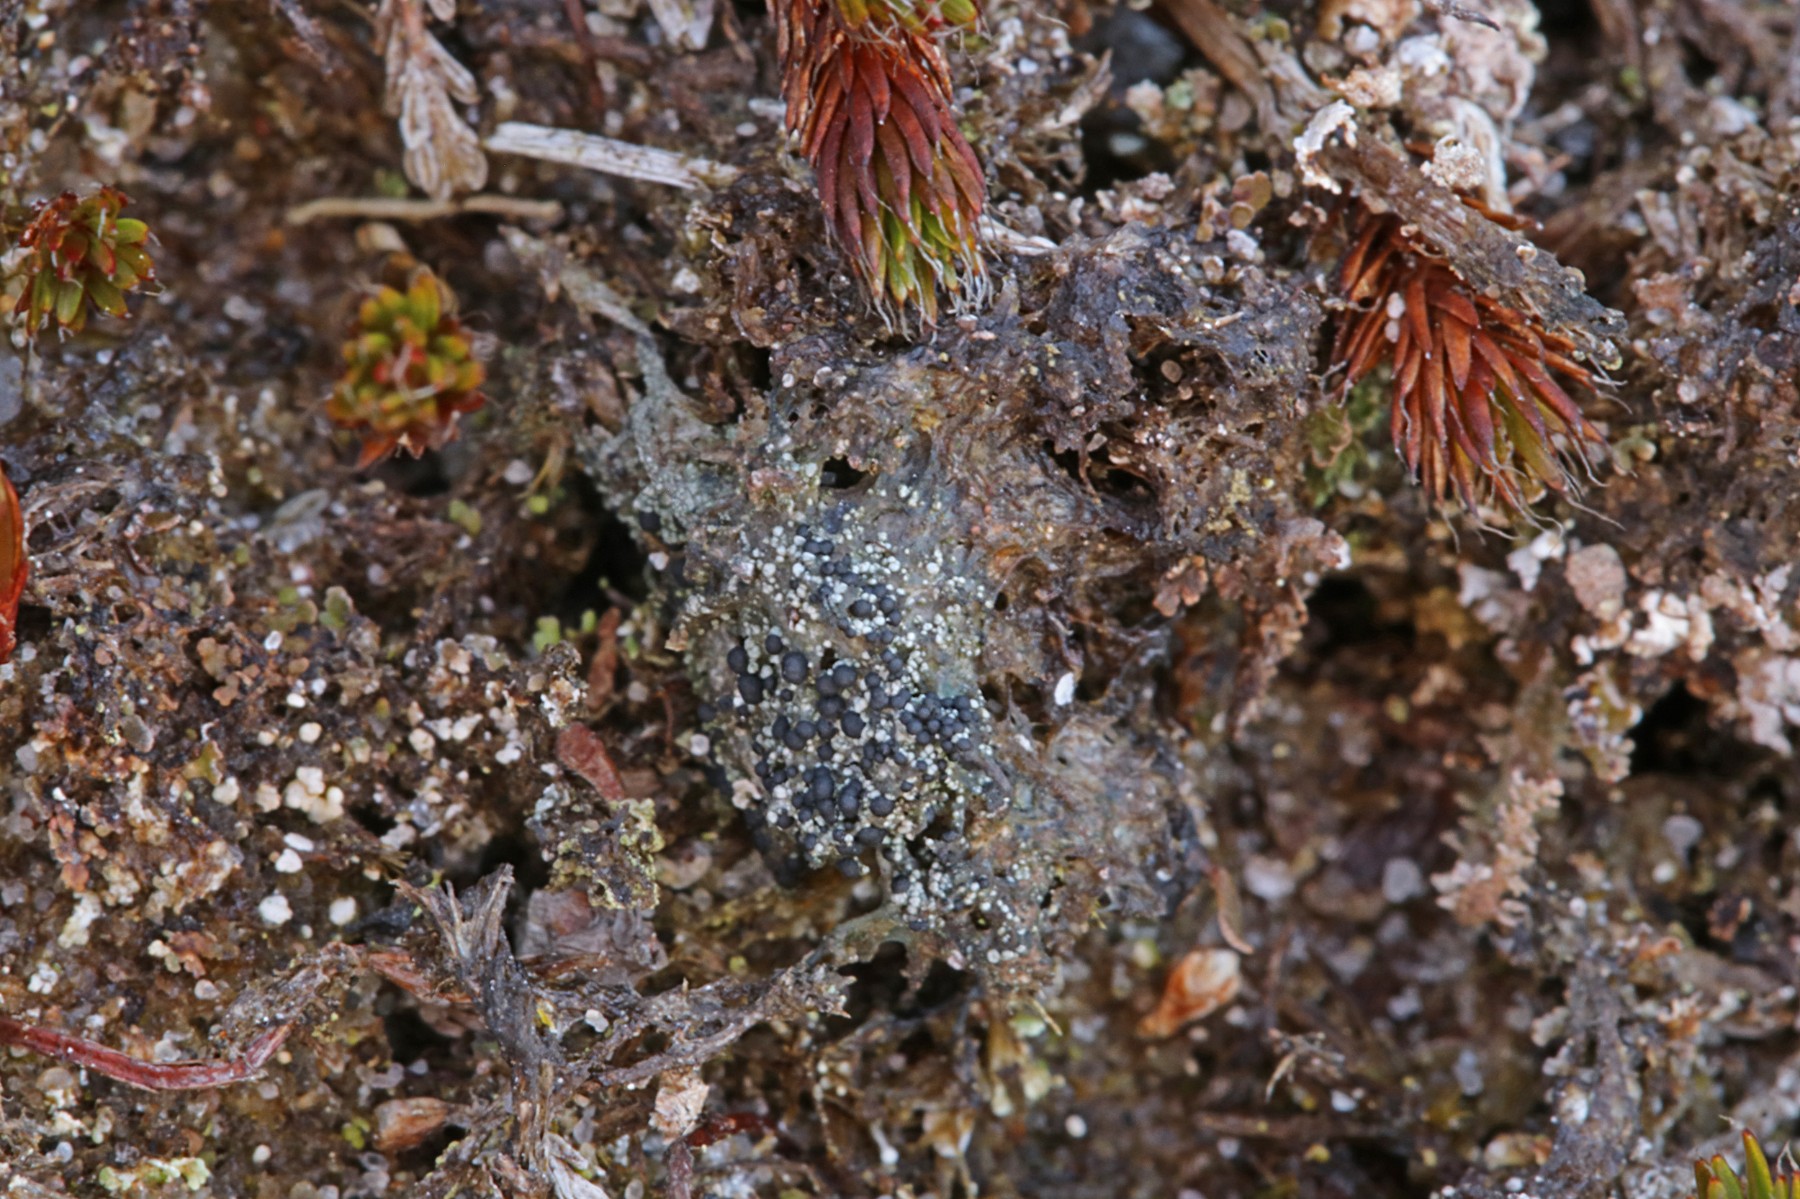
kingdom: Fungi
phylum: Ascomycota
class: Lecanoromycetes
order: Lecanorales
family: Byssolomataceae
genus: Micarea
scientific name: Micarea lignaria
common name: tørve-knaplav
